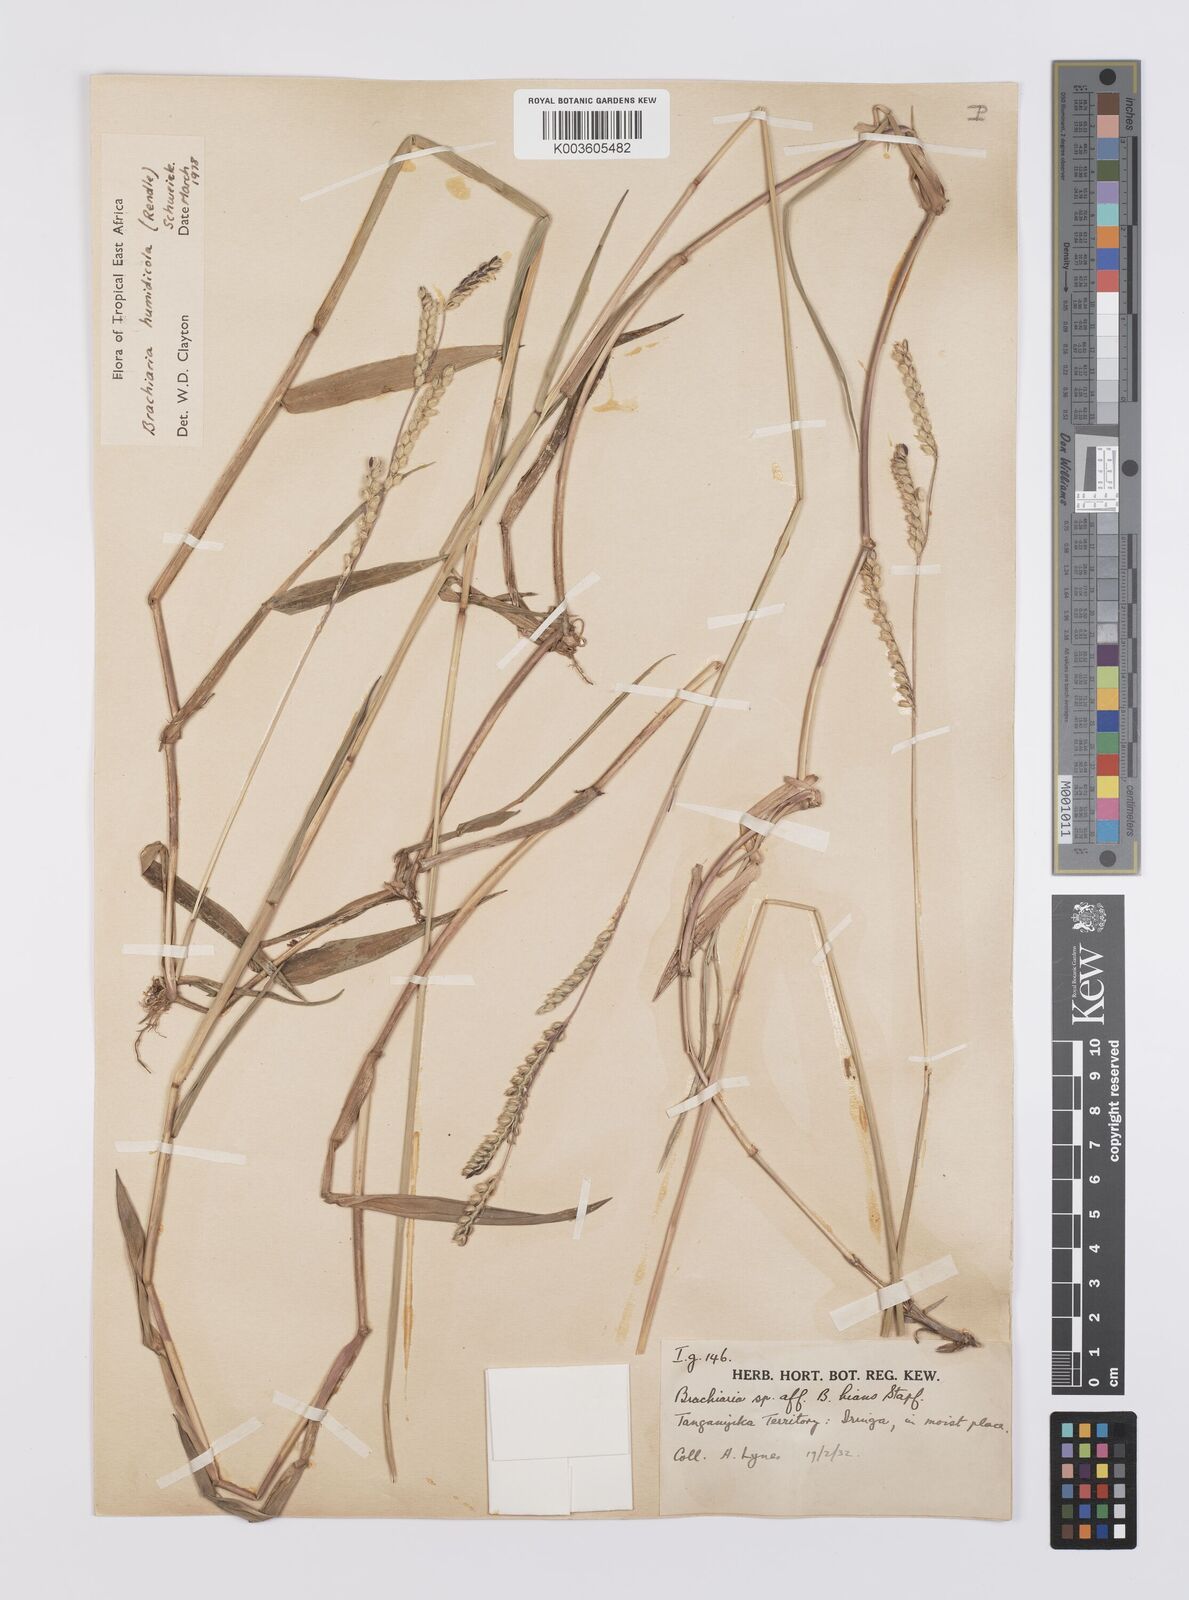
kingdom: Plantae
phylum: Tracheophyta
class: Liliopsida
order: Poales
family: Poaceae
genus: Urochloa
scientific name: Urochloa dictyoneura
